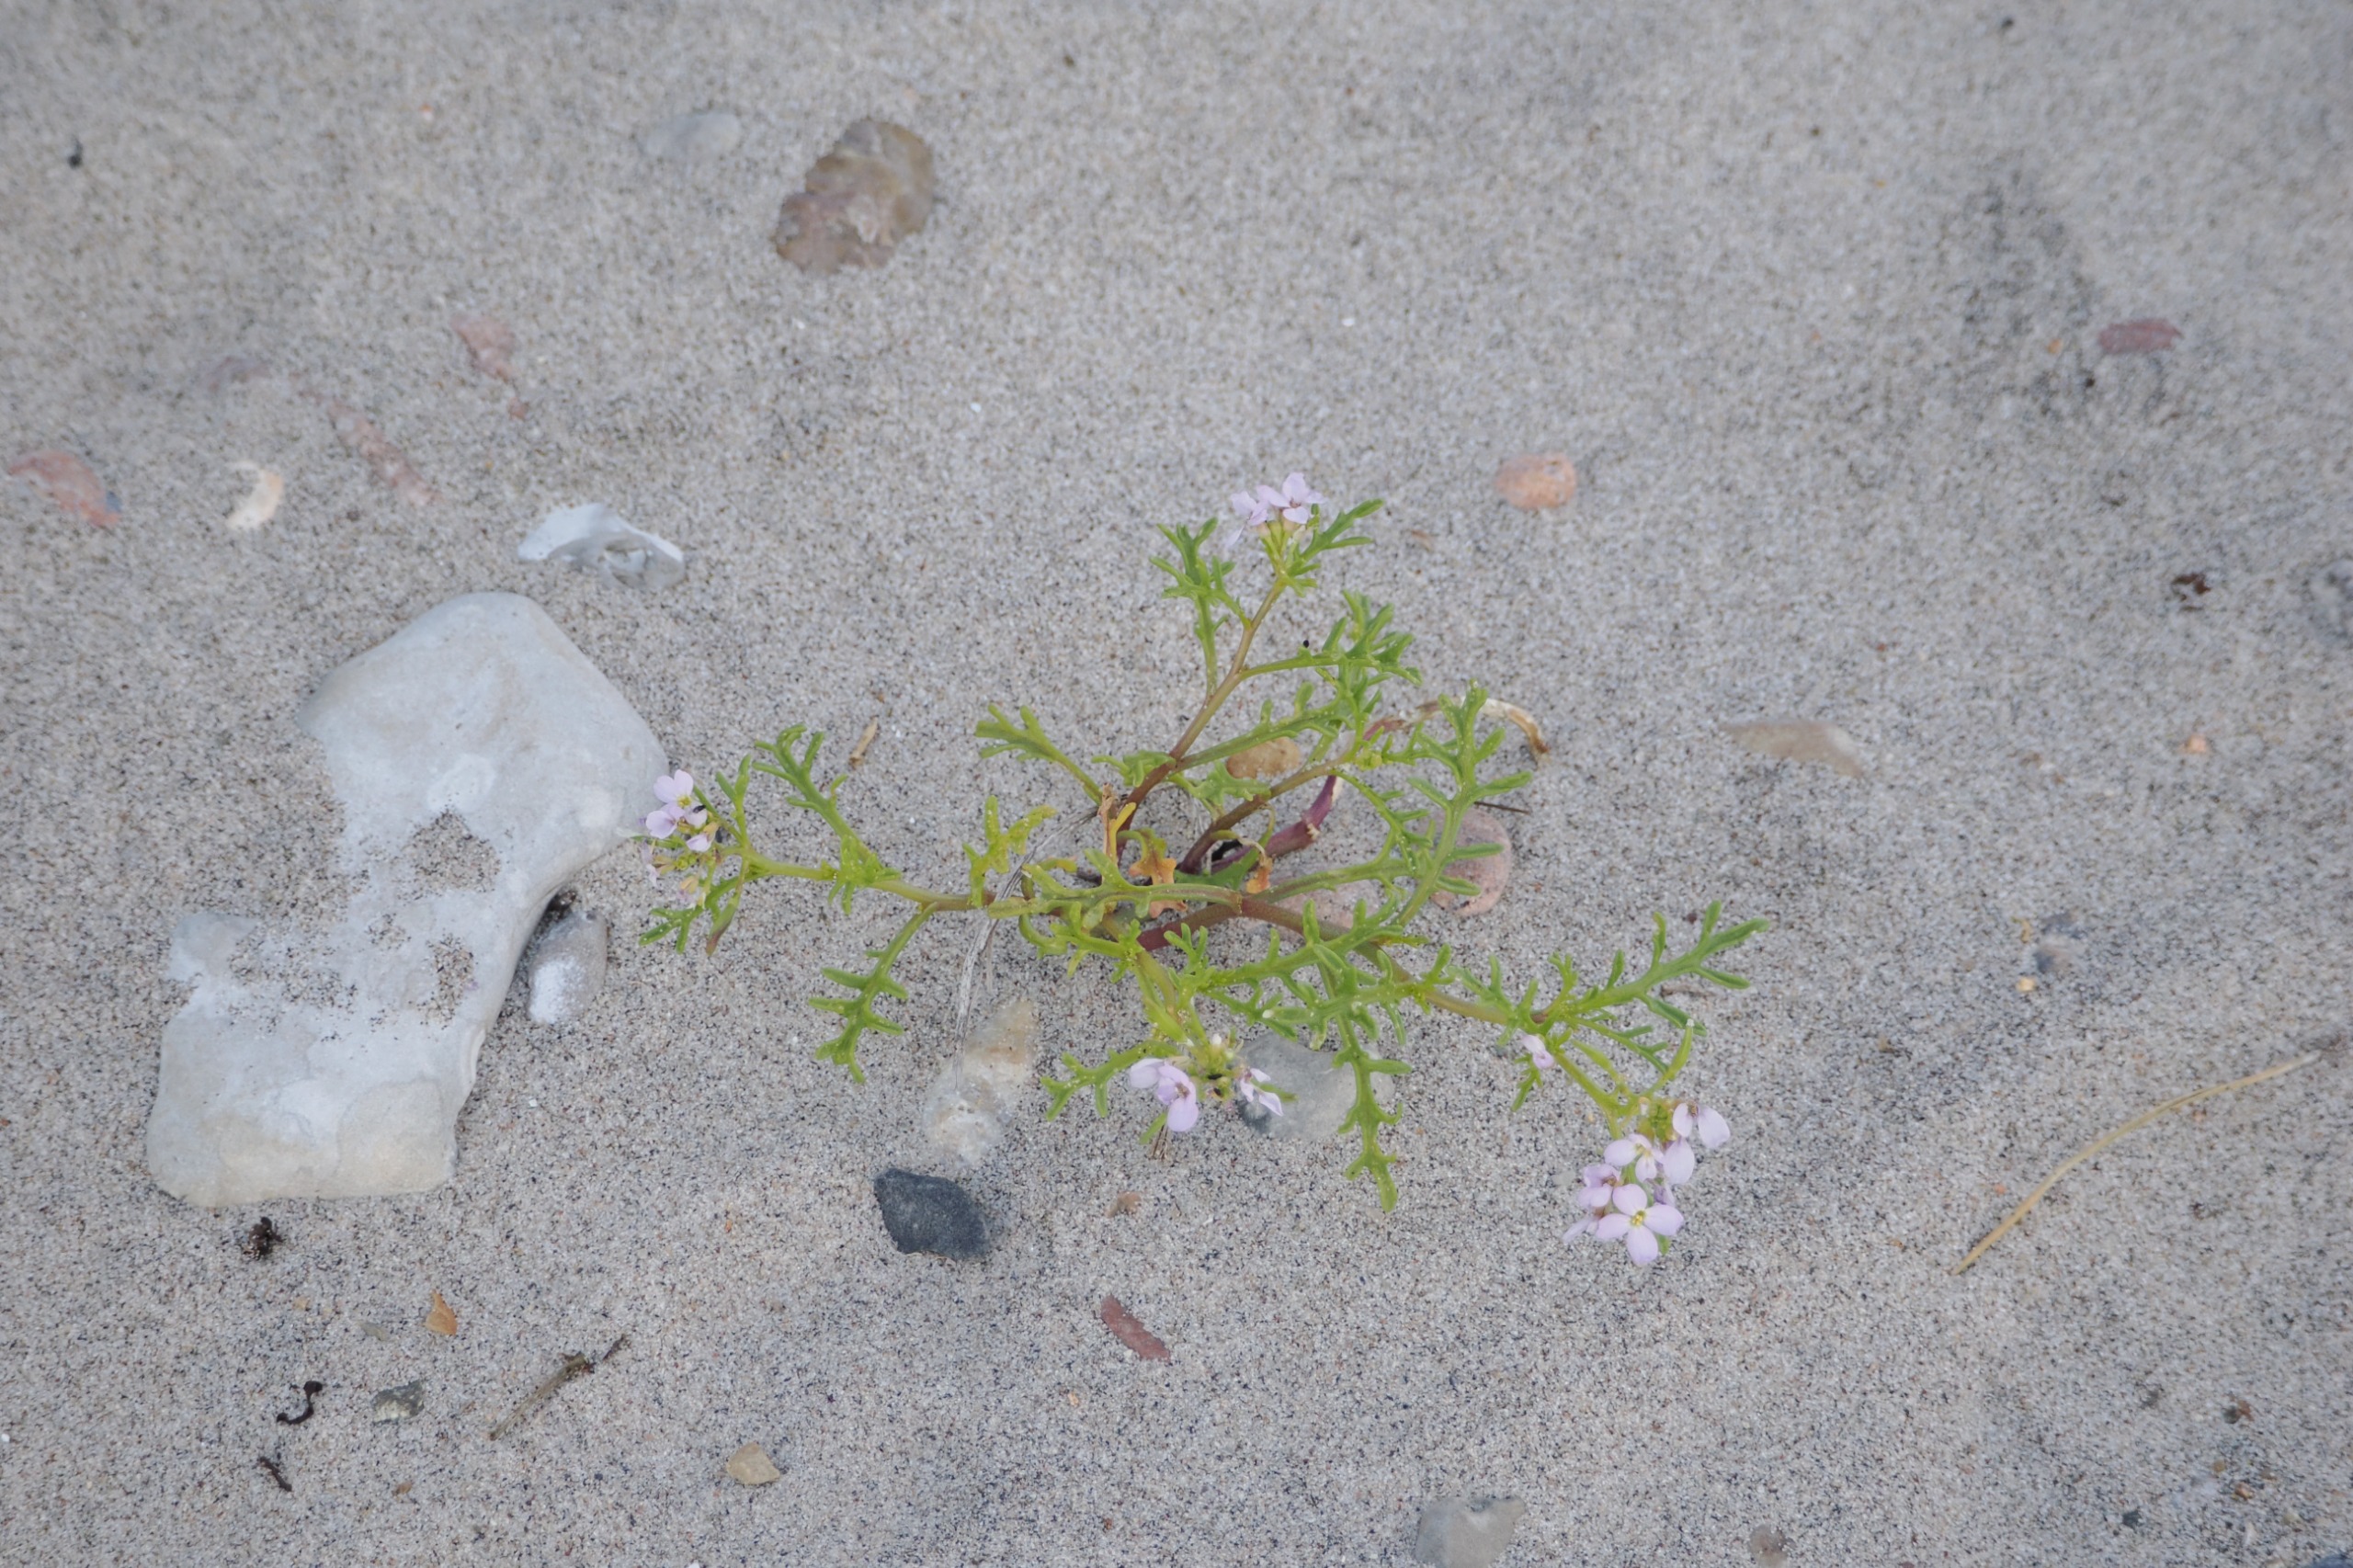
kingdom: Plantae
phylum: Tracheophyta
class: Magnoliopsida
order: Brassicales
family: Brassicaceae
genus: Cakile
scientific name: Cakile maritima
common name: Strandsennep
